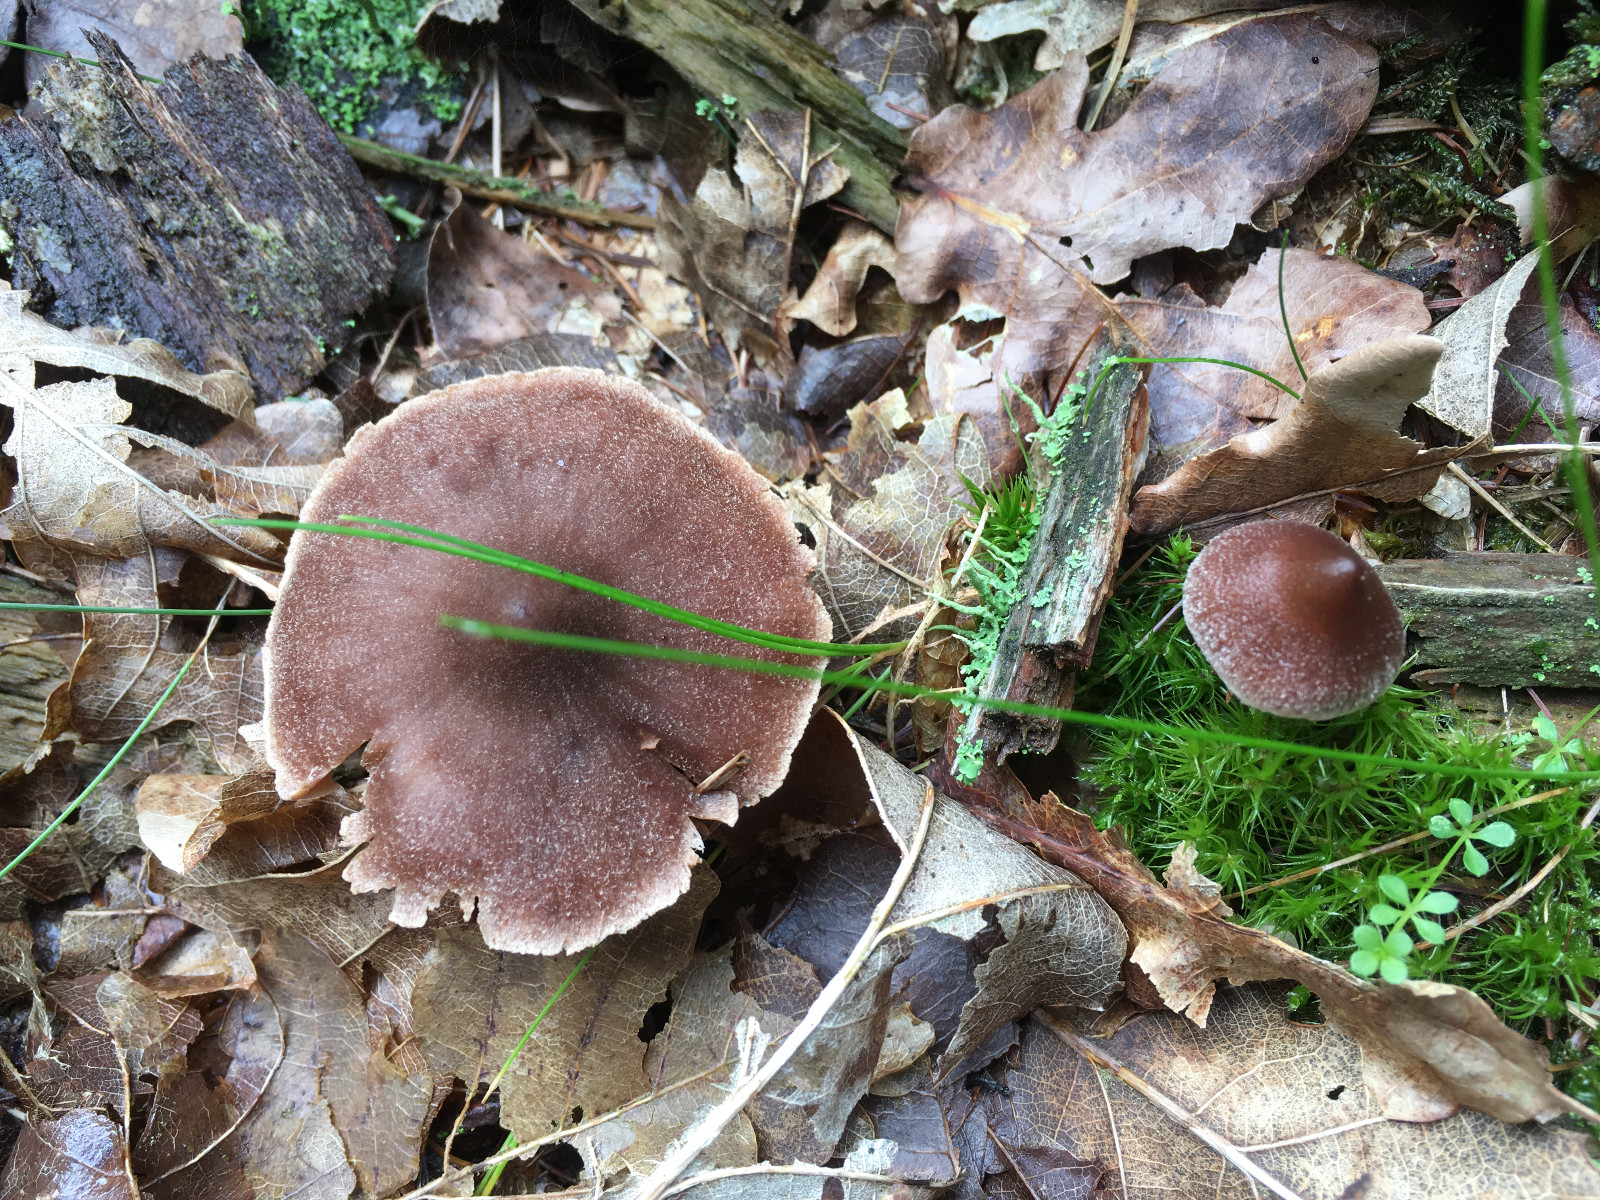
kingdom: Fungi
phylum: Basidiomycota
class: Agaricomycetes
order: Agaricales
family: Cortinariaceae
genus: Cortinarius
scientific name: Cortinarius
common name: pelargonie-slørhat
